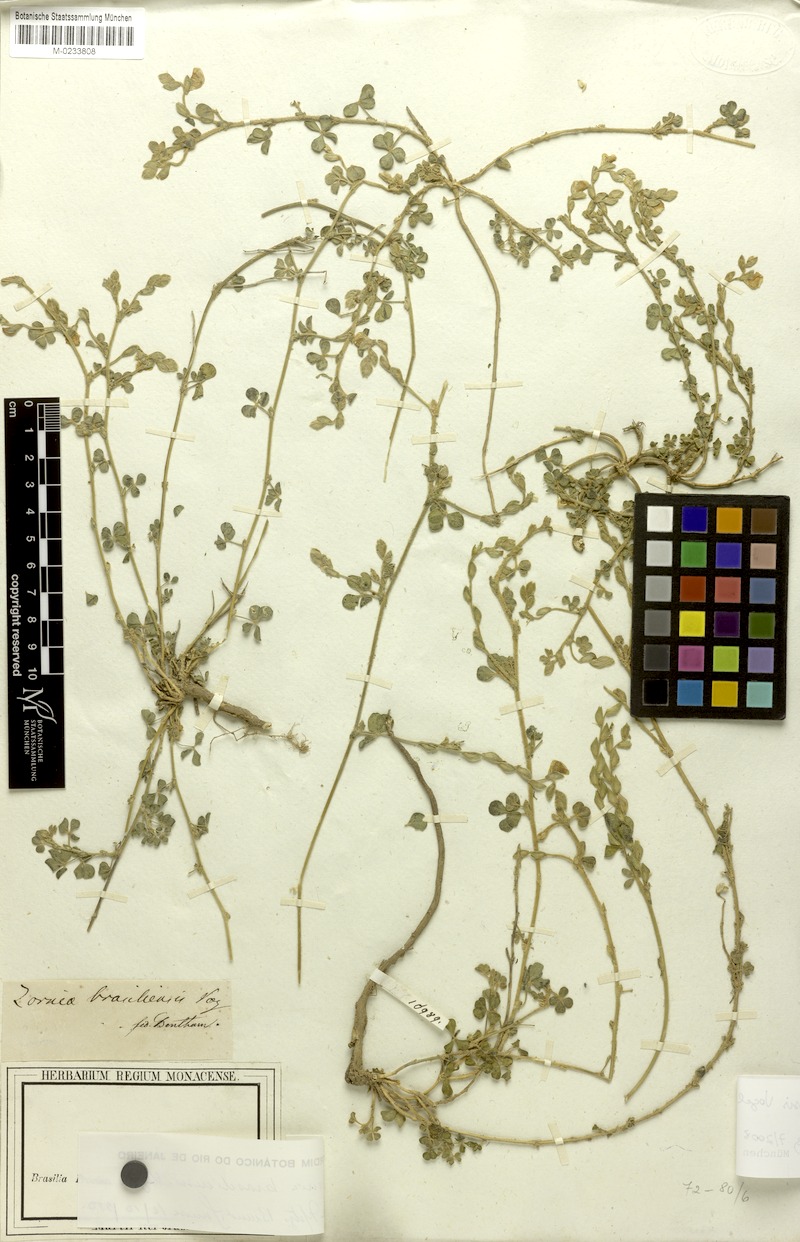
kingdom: Plantae
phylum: Tracheophyta
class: Magnoliopsida
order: Fabales
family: Fabaceae
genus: Zornia
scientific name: Zornia brasiliensis
